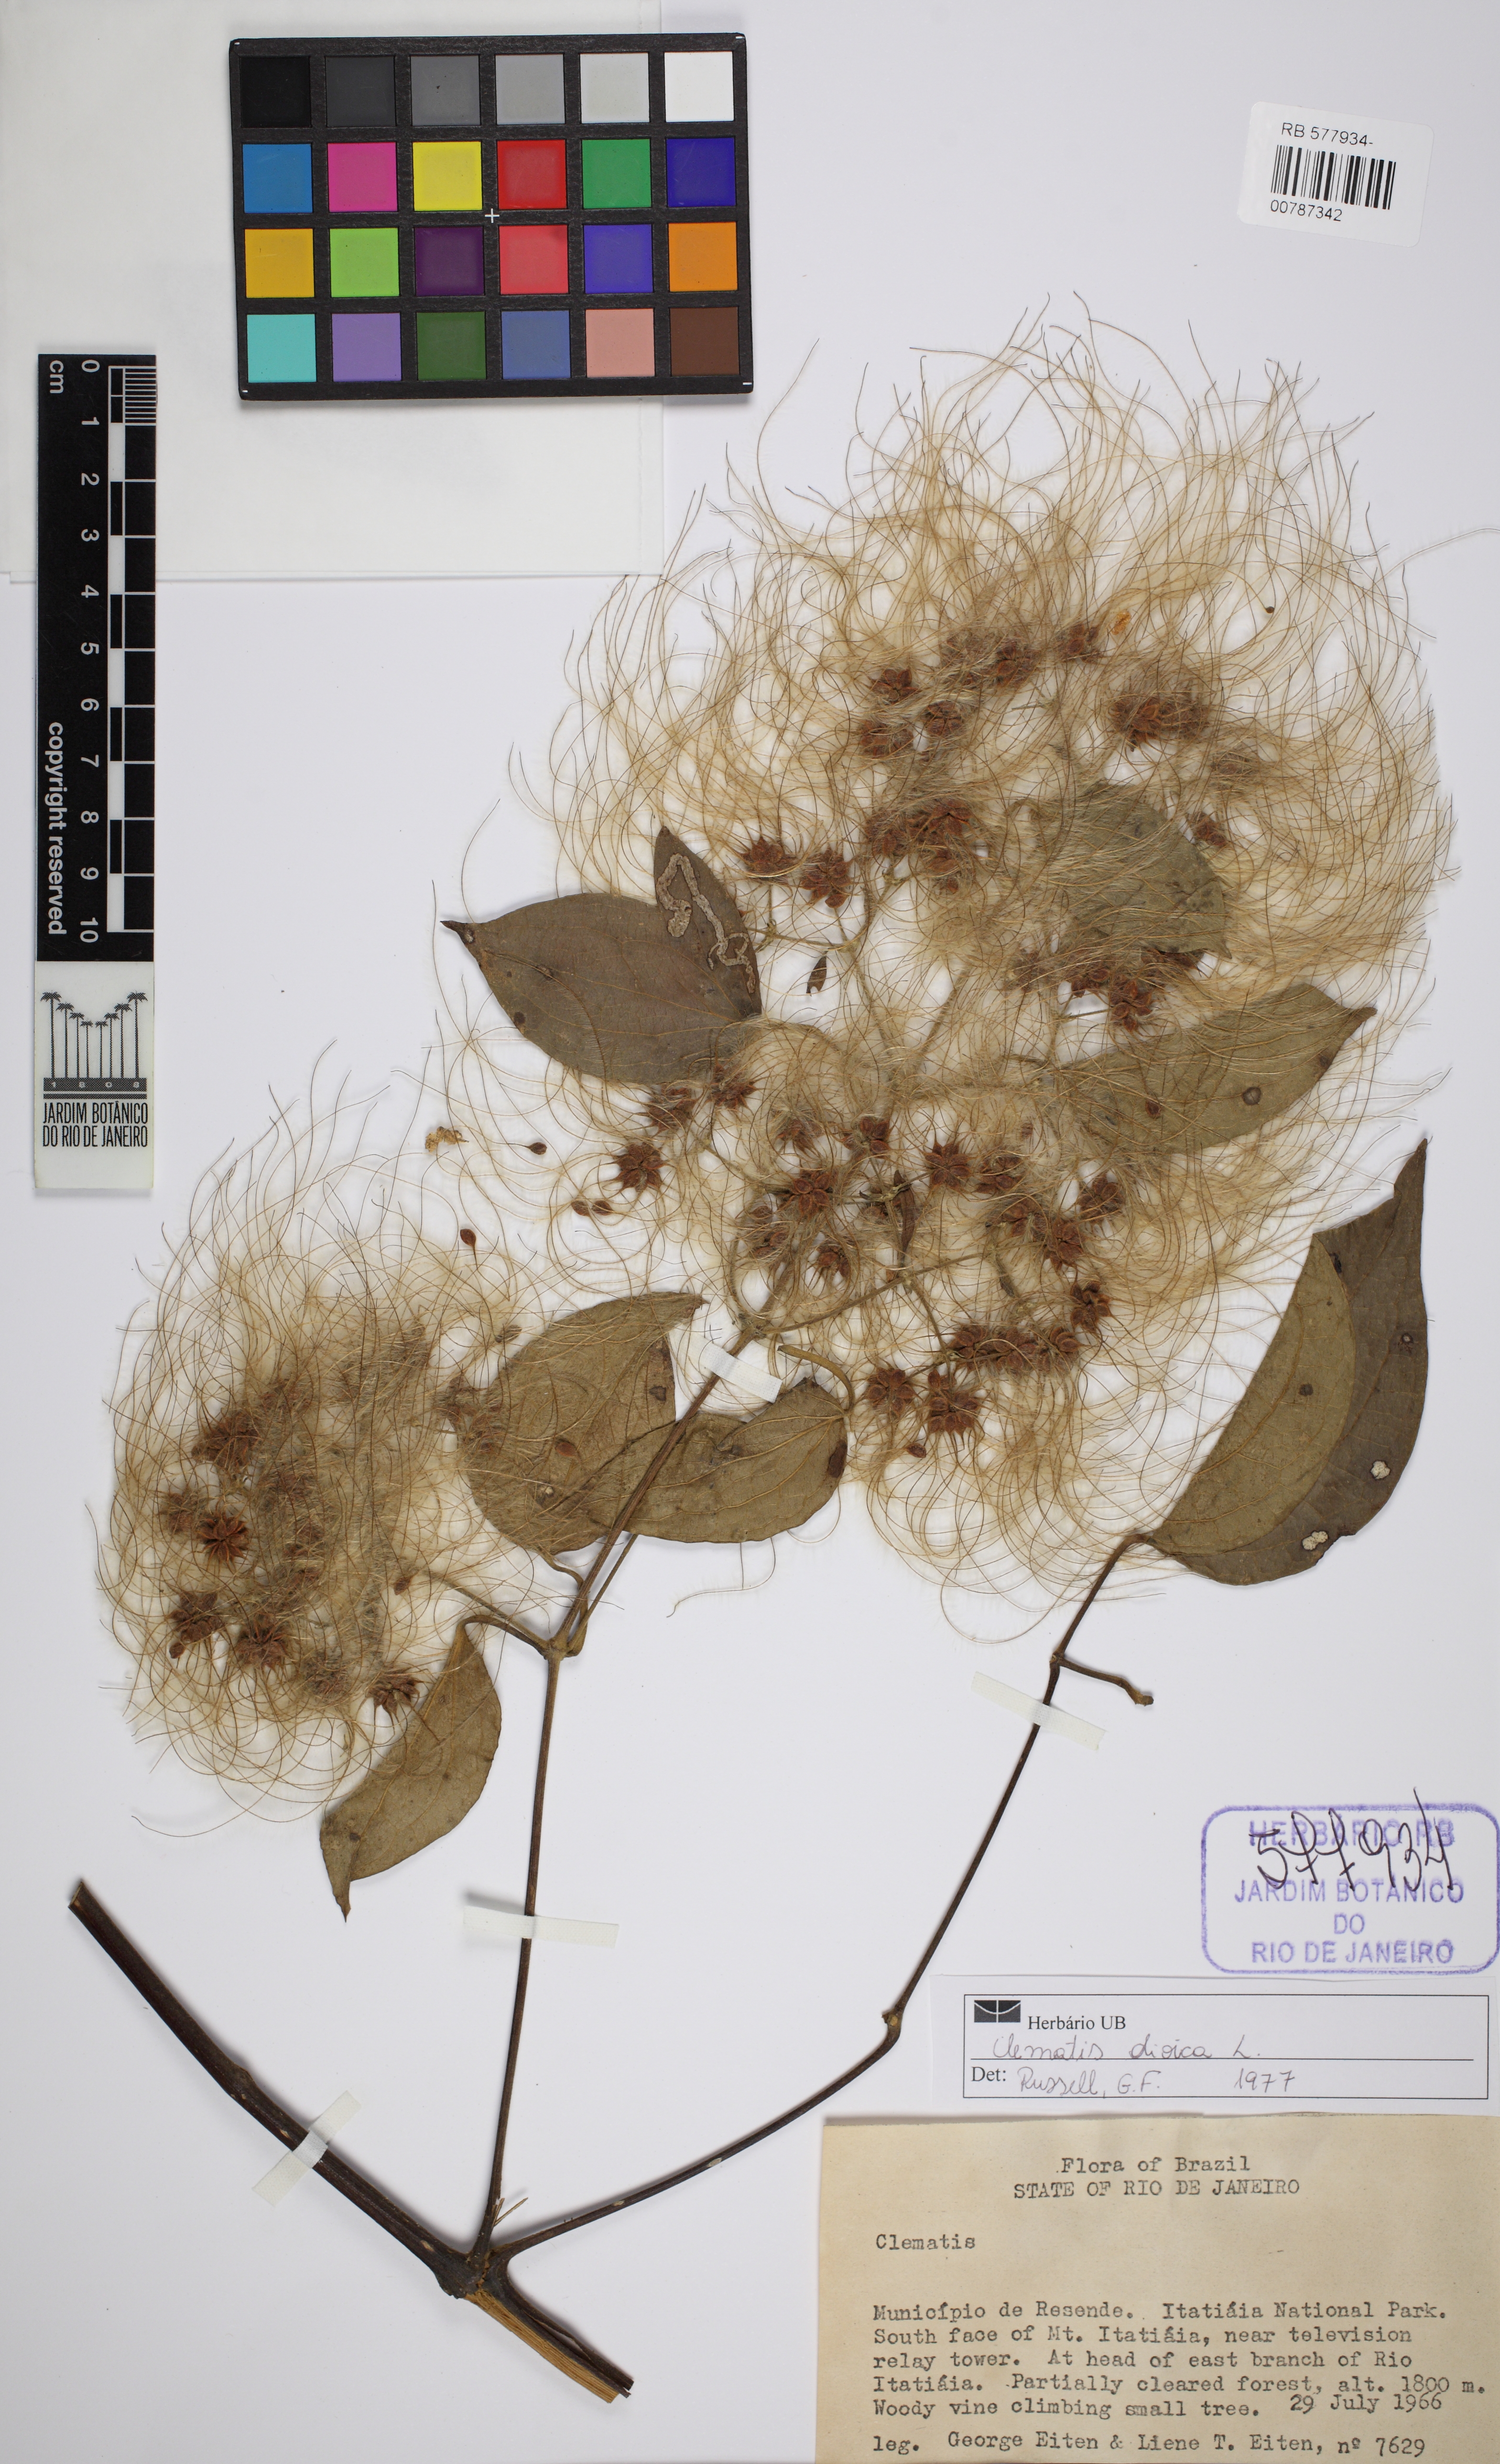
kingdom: Plantae
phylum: Tracheophyta
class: Magnoliopsida
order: Ranunculales
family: Ranunculaceae
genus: Clematis
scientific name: Clematis dioica
